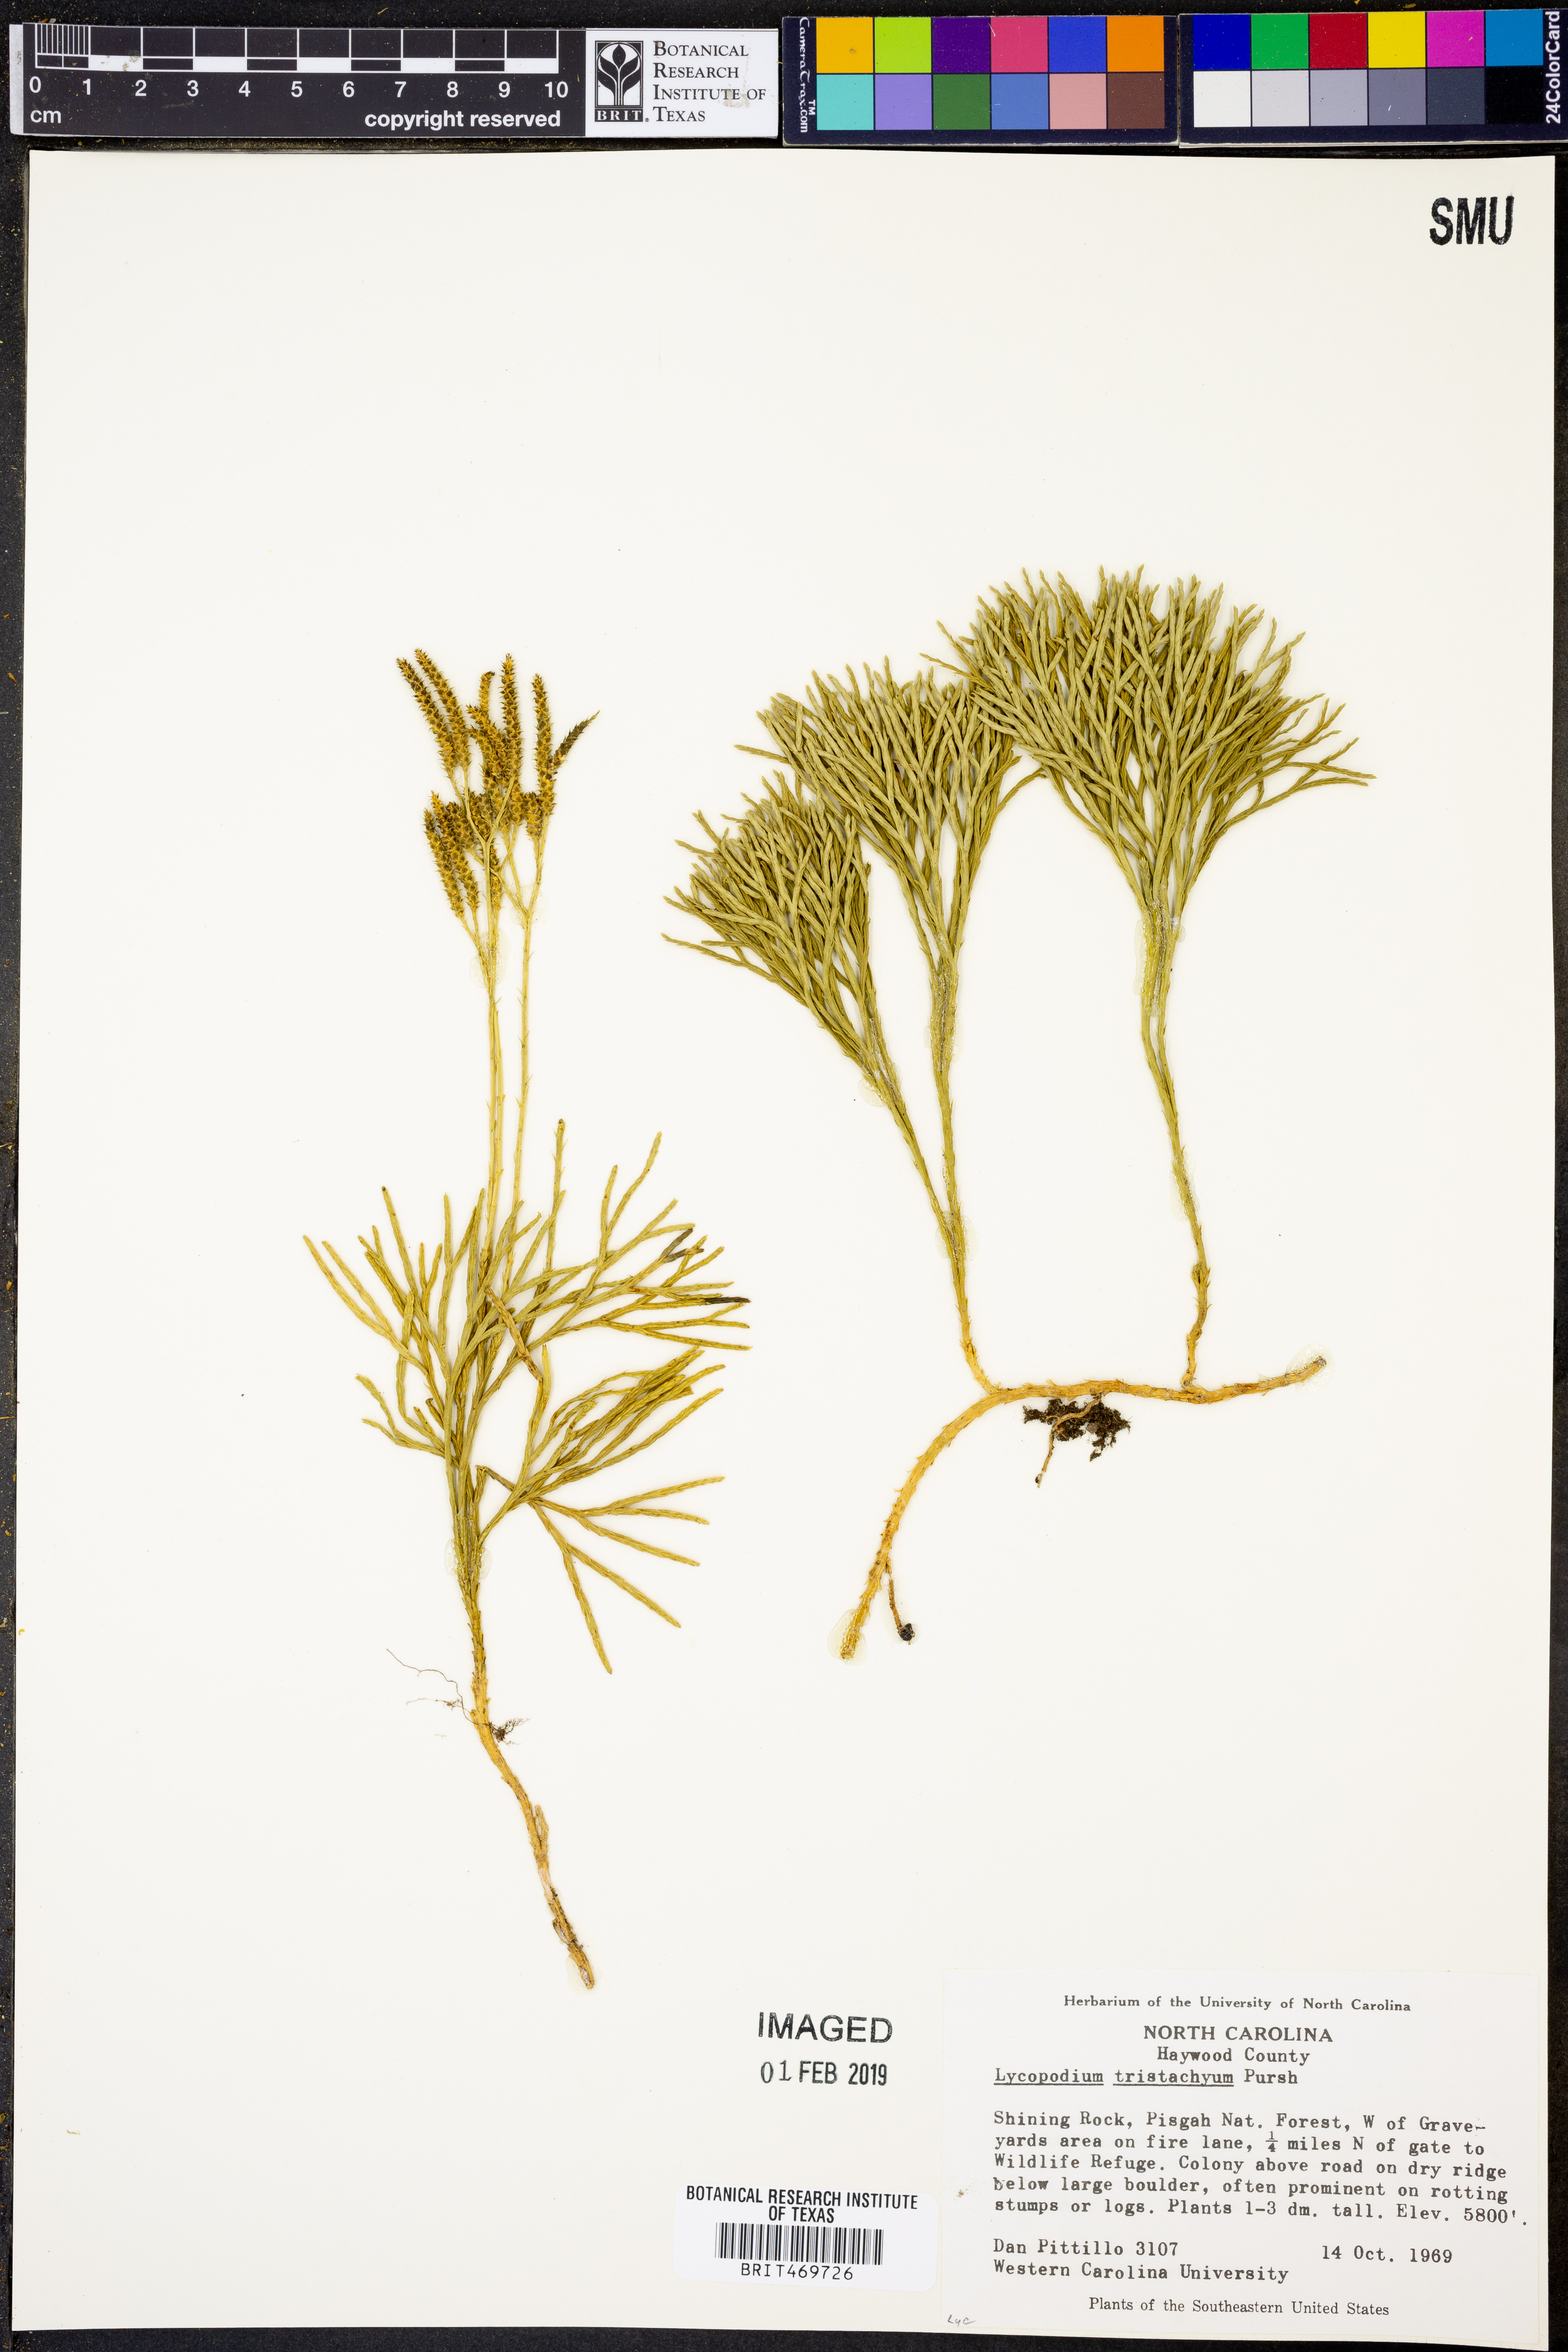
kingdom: Plantae
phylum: Tracheophyta
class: Lycopodiopsida
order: Lycopodiales
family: Lycopodiaceae
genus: Diphasiastrum
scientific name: Diphasiastrum tristachyum
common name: Blue ground-cedar
